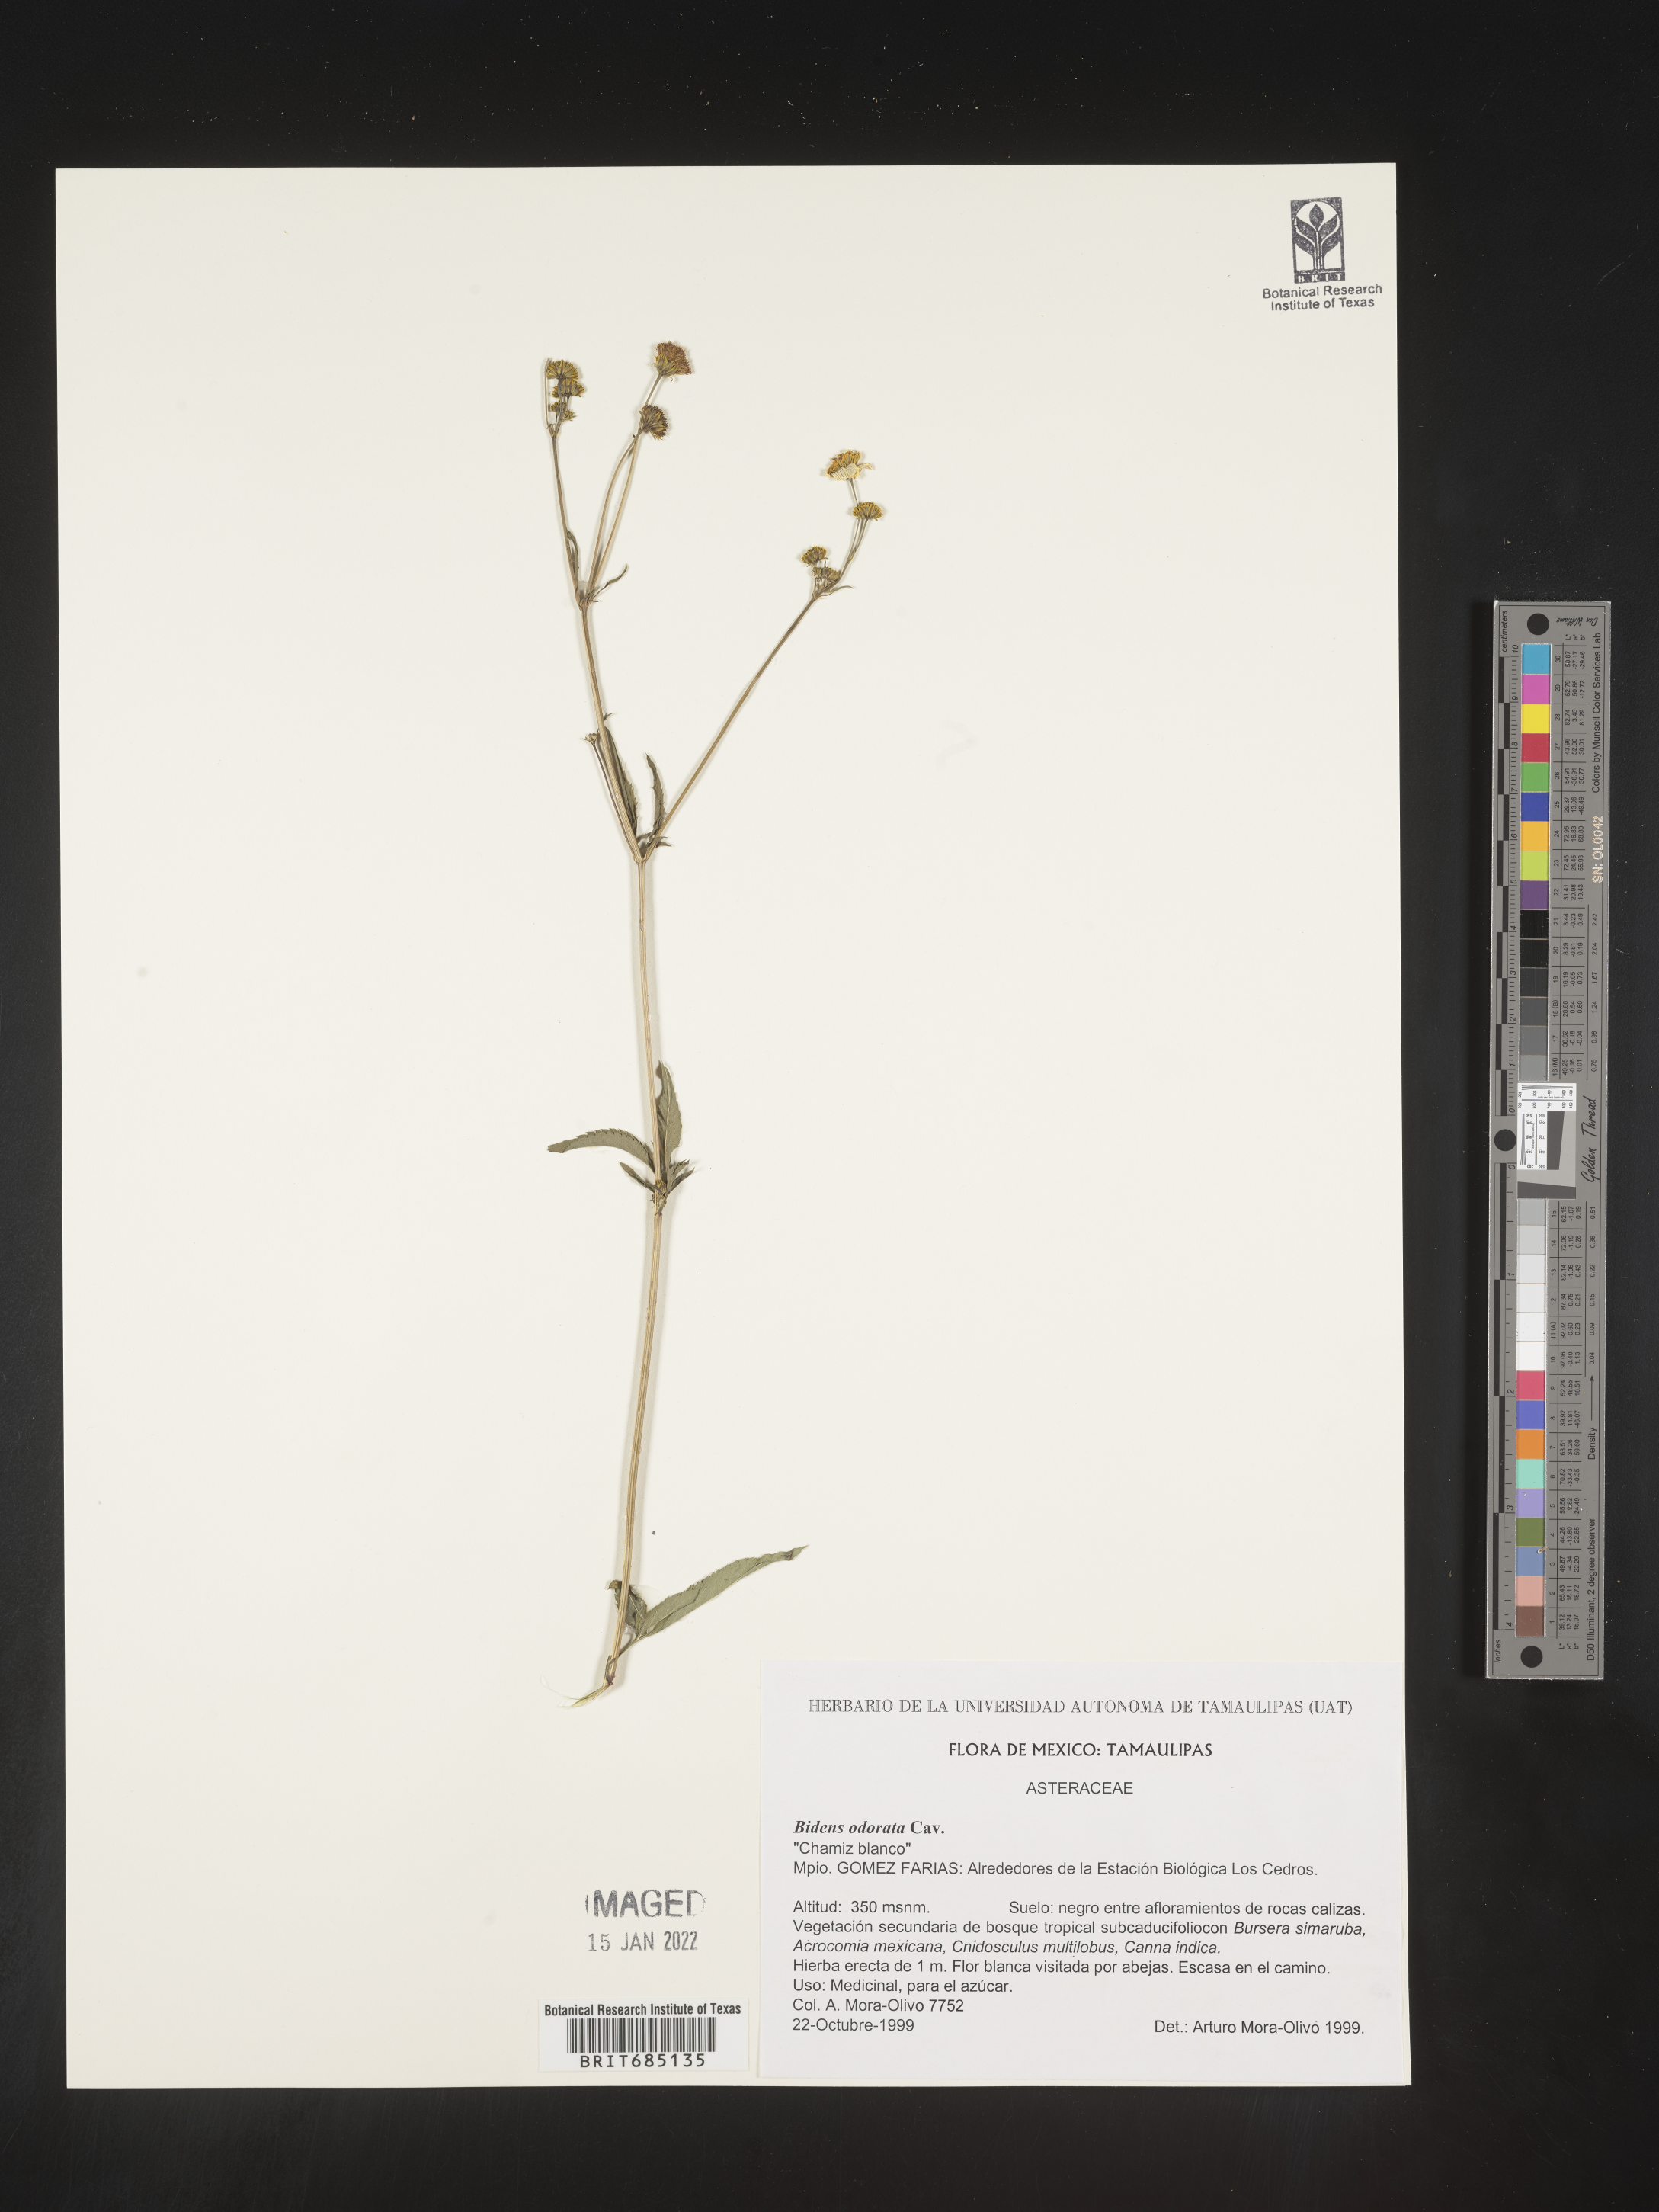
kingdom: Plantae
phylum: Tracheophyta
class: Magnoliopsida
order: Asterales
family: Asteraceae
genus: Bidens
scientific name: Bidens
